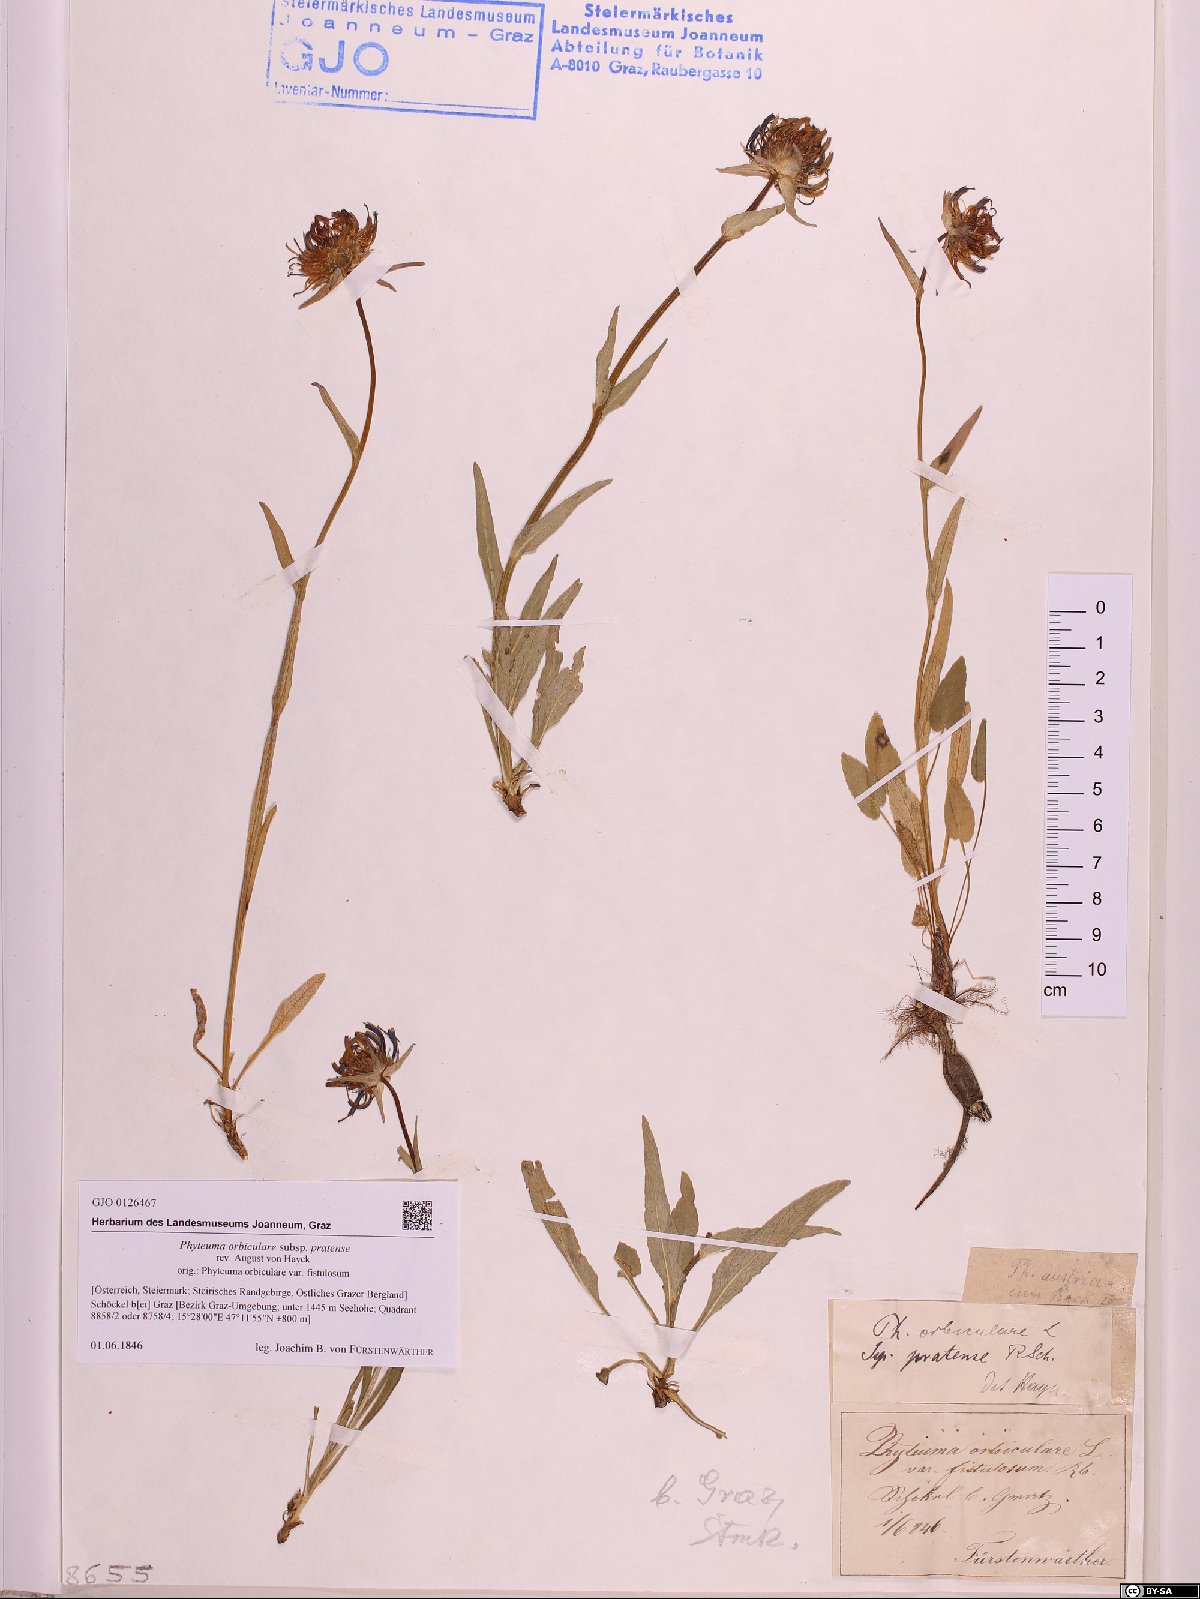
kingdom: Plantae
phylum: Tracheophyta
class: Magnoliopsida
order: Asterales
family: Campanulaceae
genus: Phyteuma
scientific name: Phyteuma orbiculare
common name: Round-headed rampion
